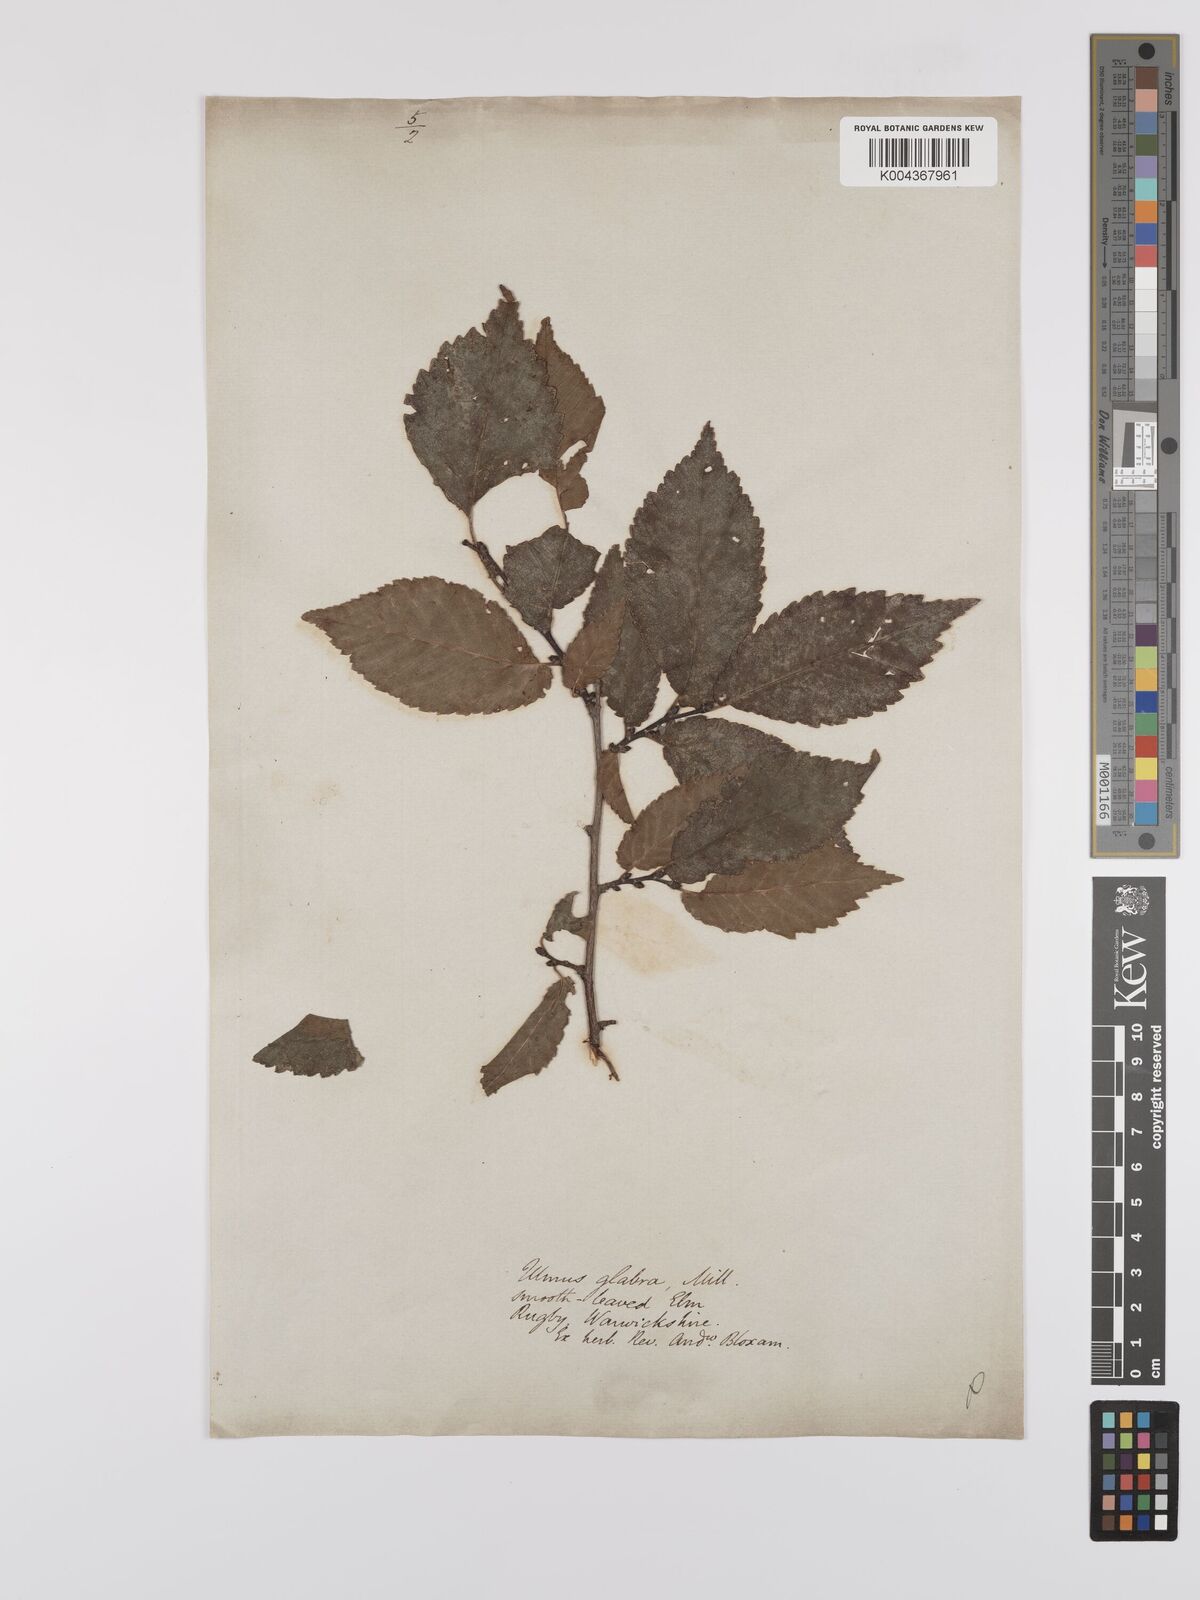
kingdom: Plantae
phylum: Tracheophyta
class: Magnoliopsida
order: Rosales
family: Ulmaceae
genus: Ulmus
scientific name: Ulmus glabra
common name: Wych elm
